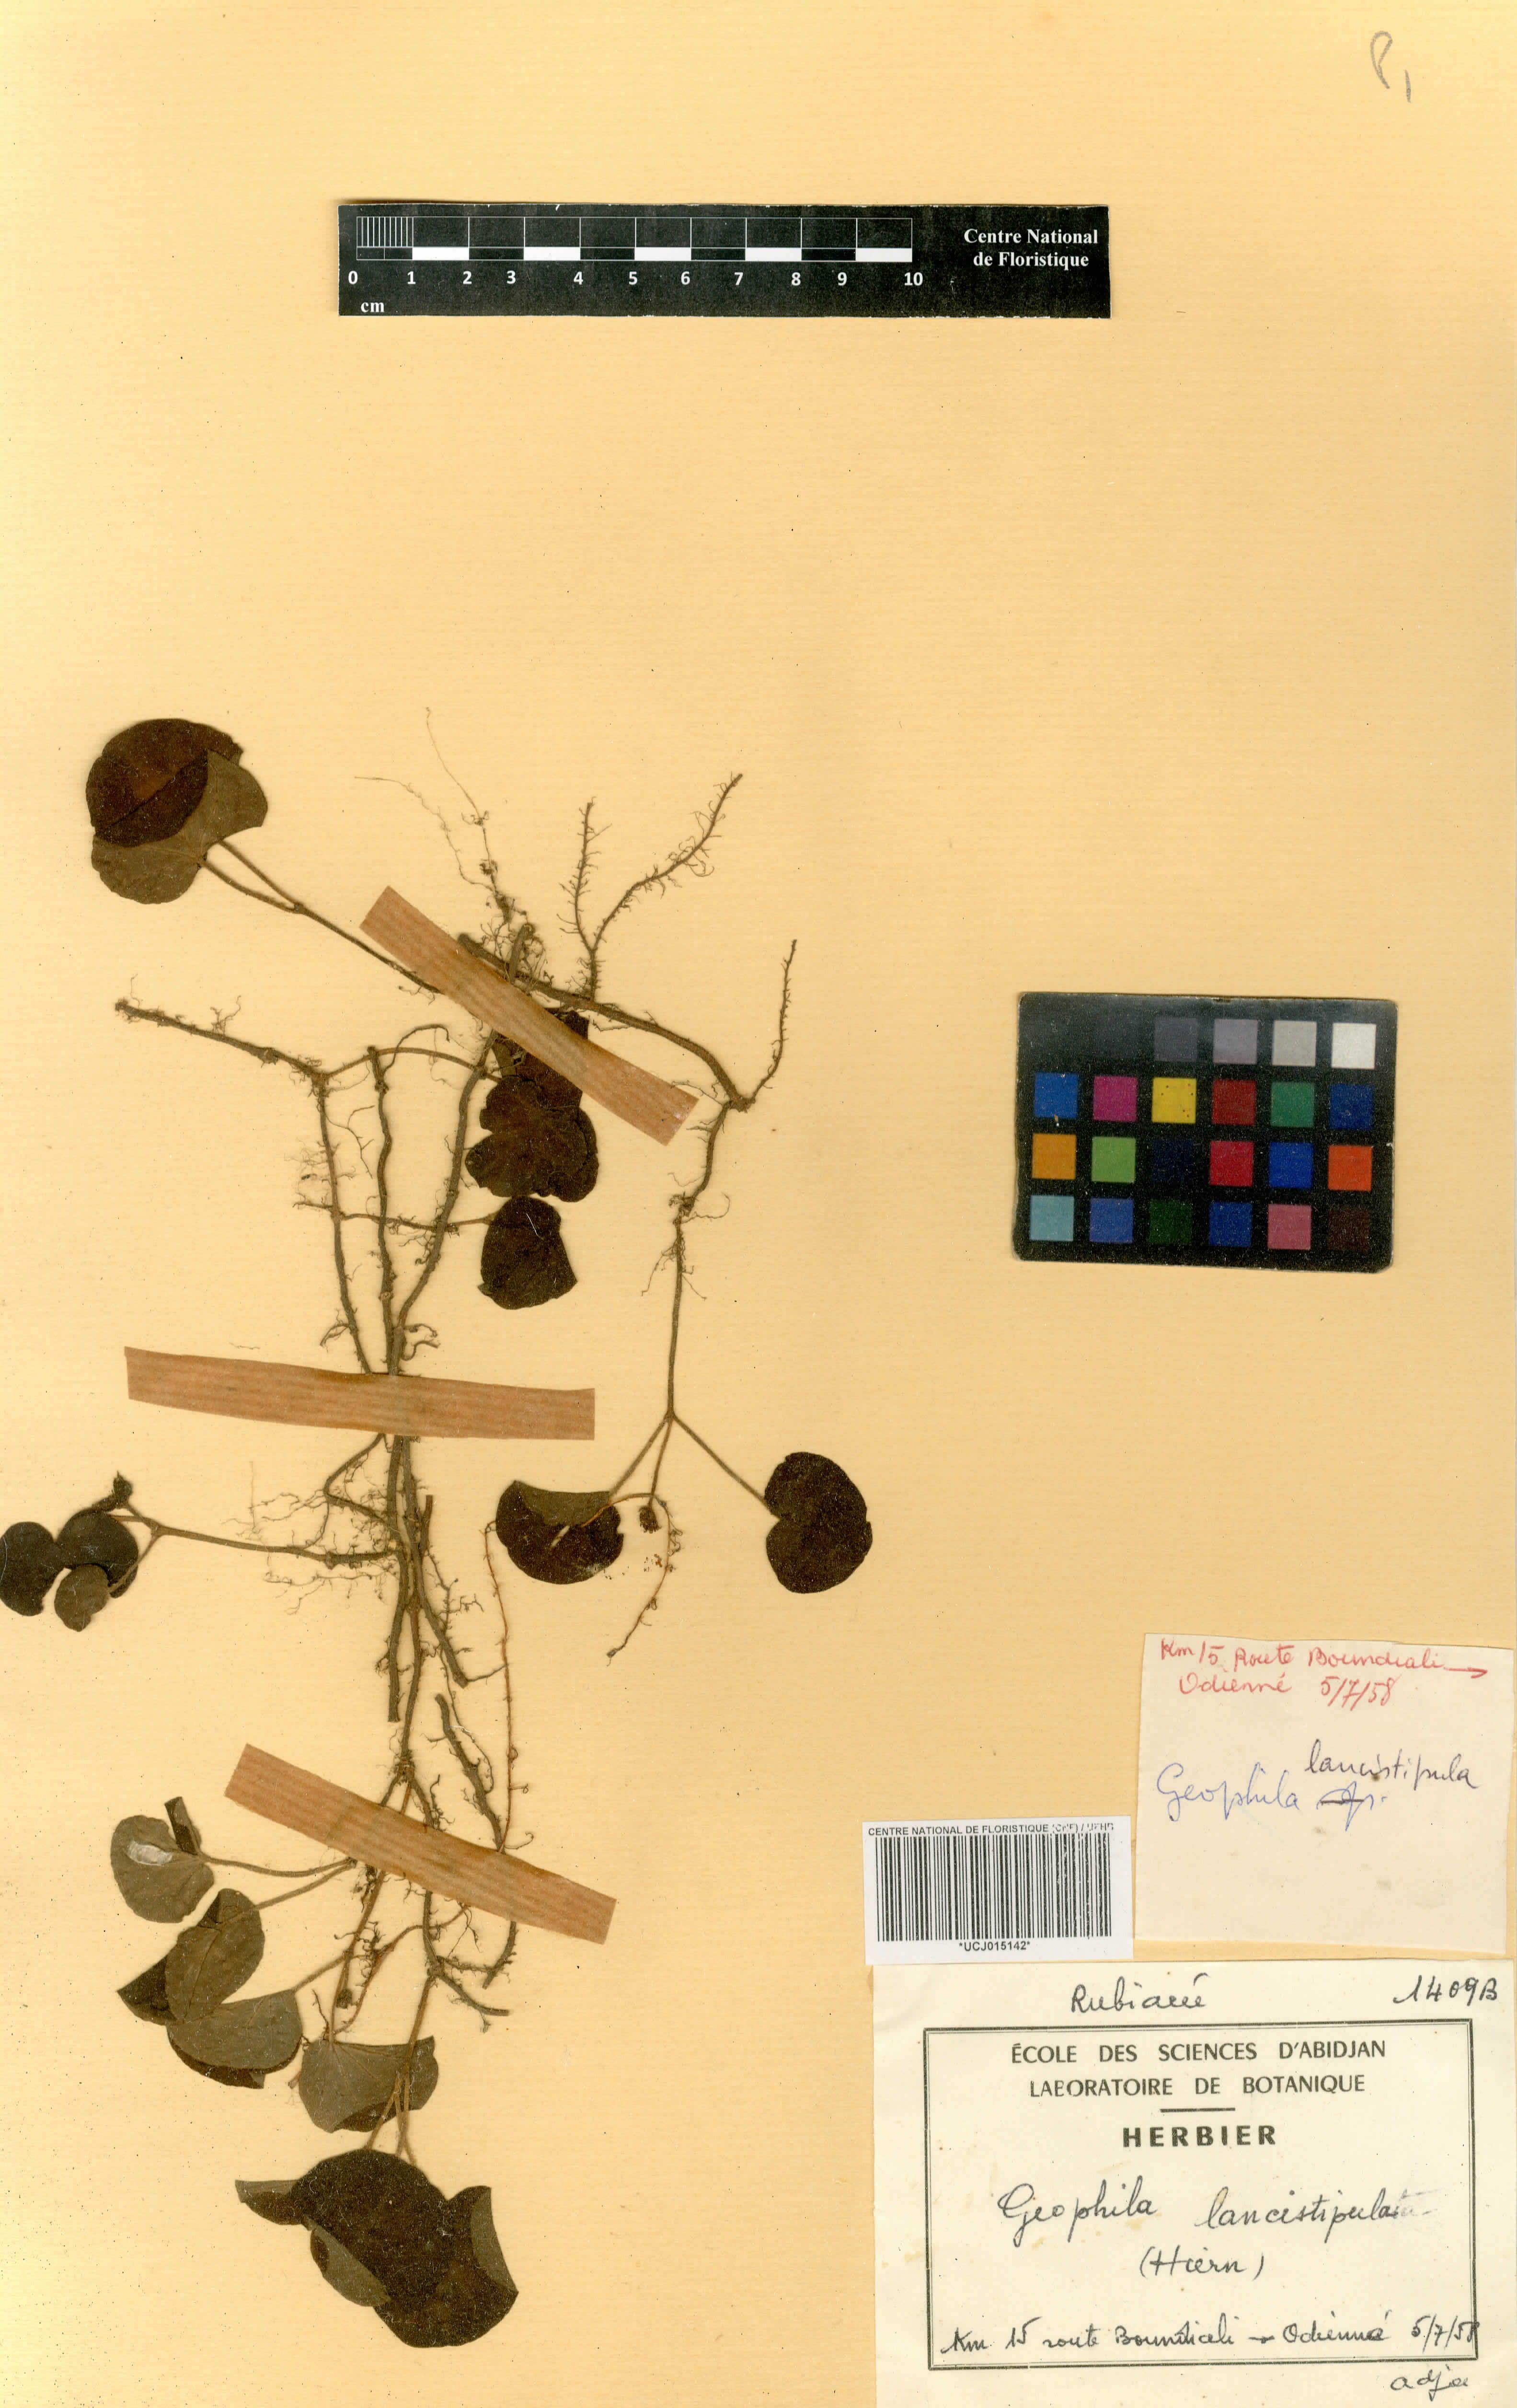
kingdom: Plantae
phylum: Tracheophyta
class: Magnoliopsida
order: Gentianales
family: Rubiaceae
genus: Geophila
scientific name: Geophila lancistipula
